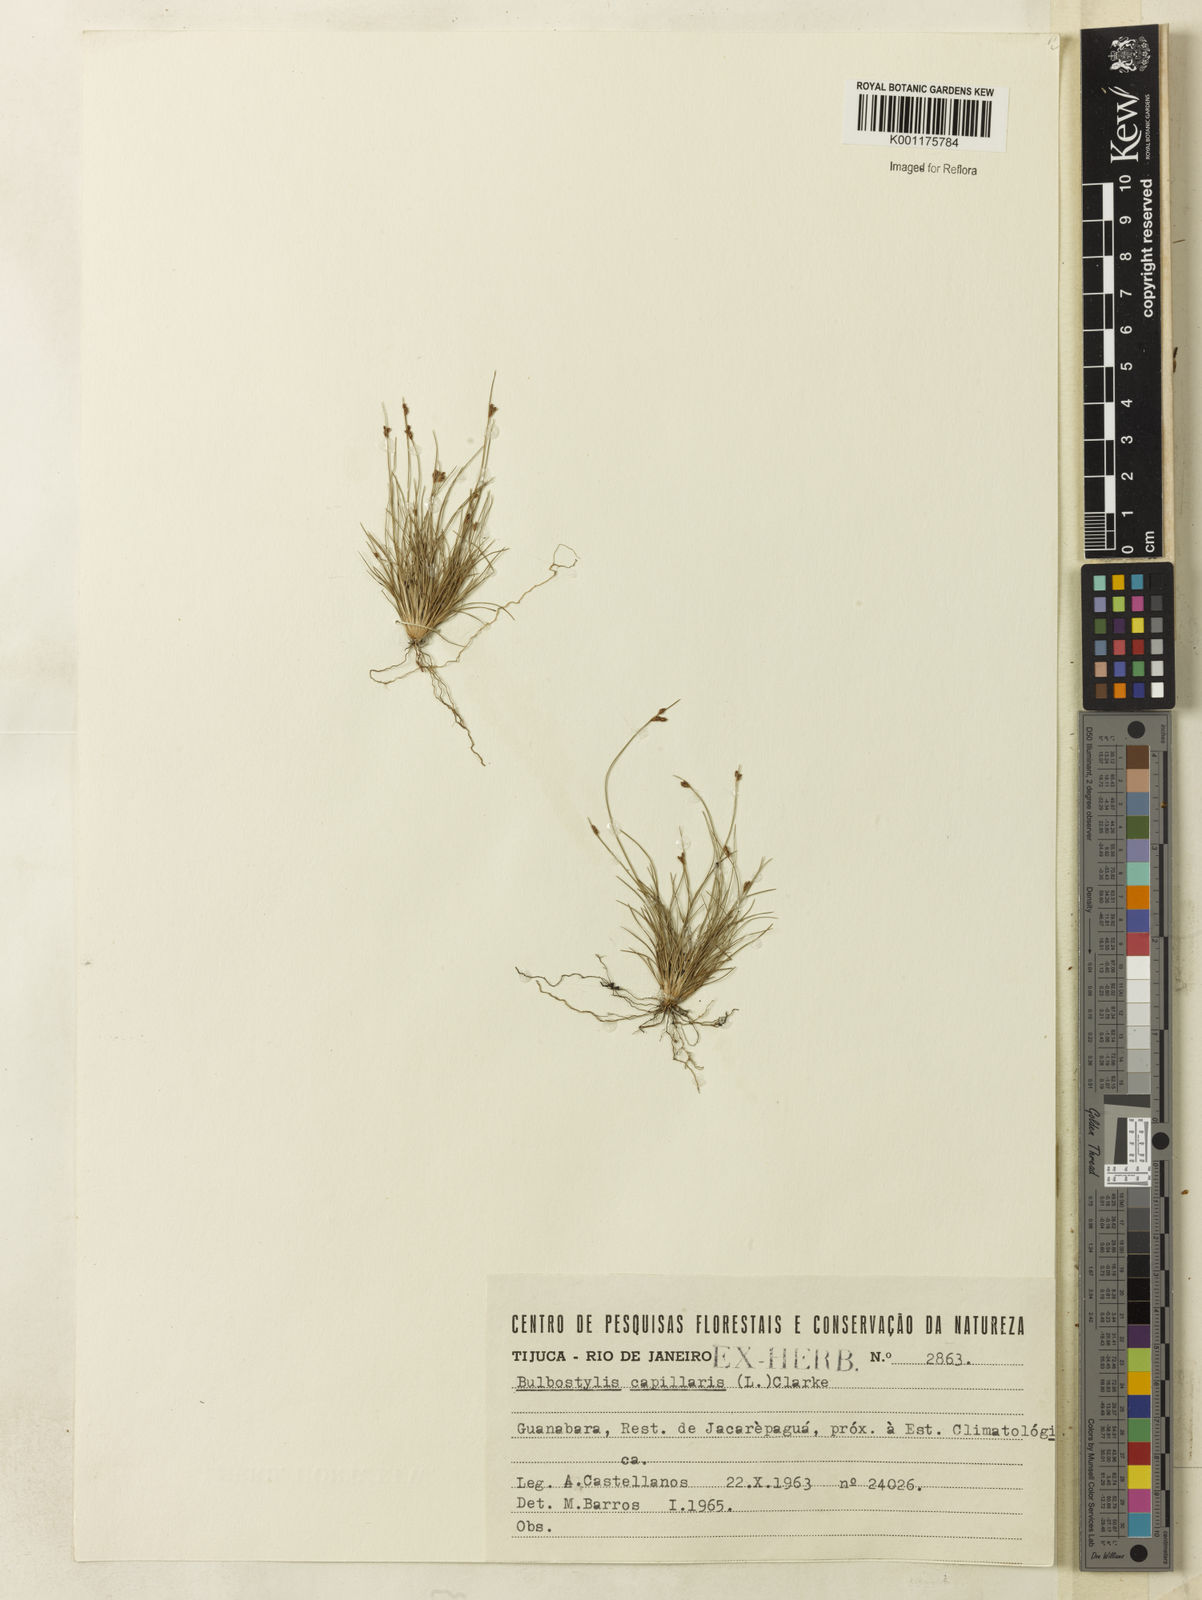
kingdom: Plantae
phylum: Tracheophyta
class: Liliopsida
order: Poales
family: Cyperaceae
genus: Bulbostylis
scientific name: Bulbostylis capillaris
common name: Densetuft hairsedge
